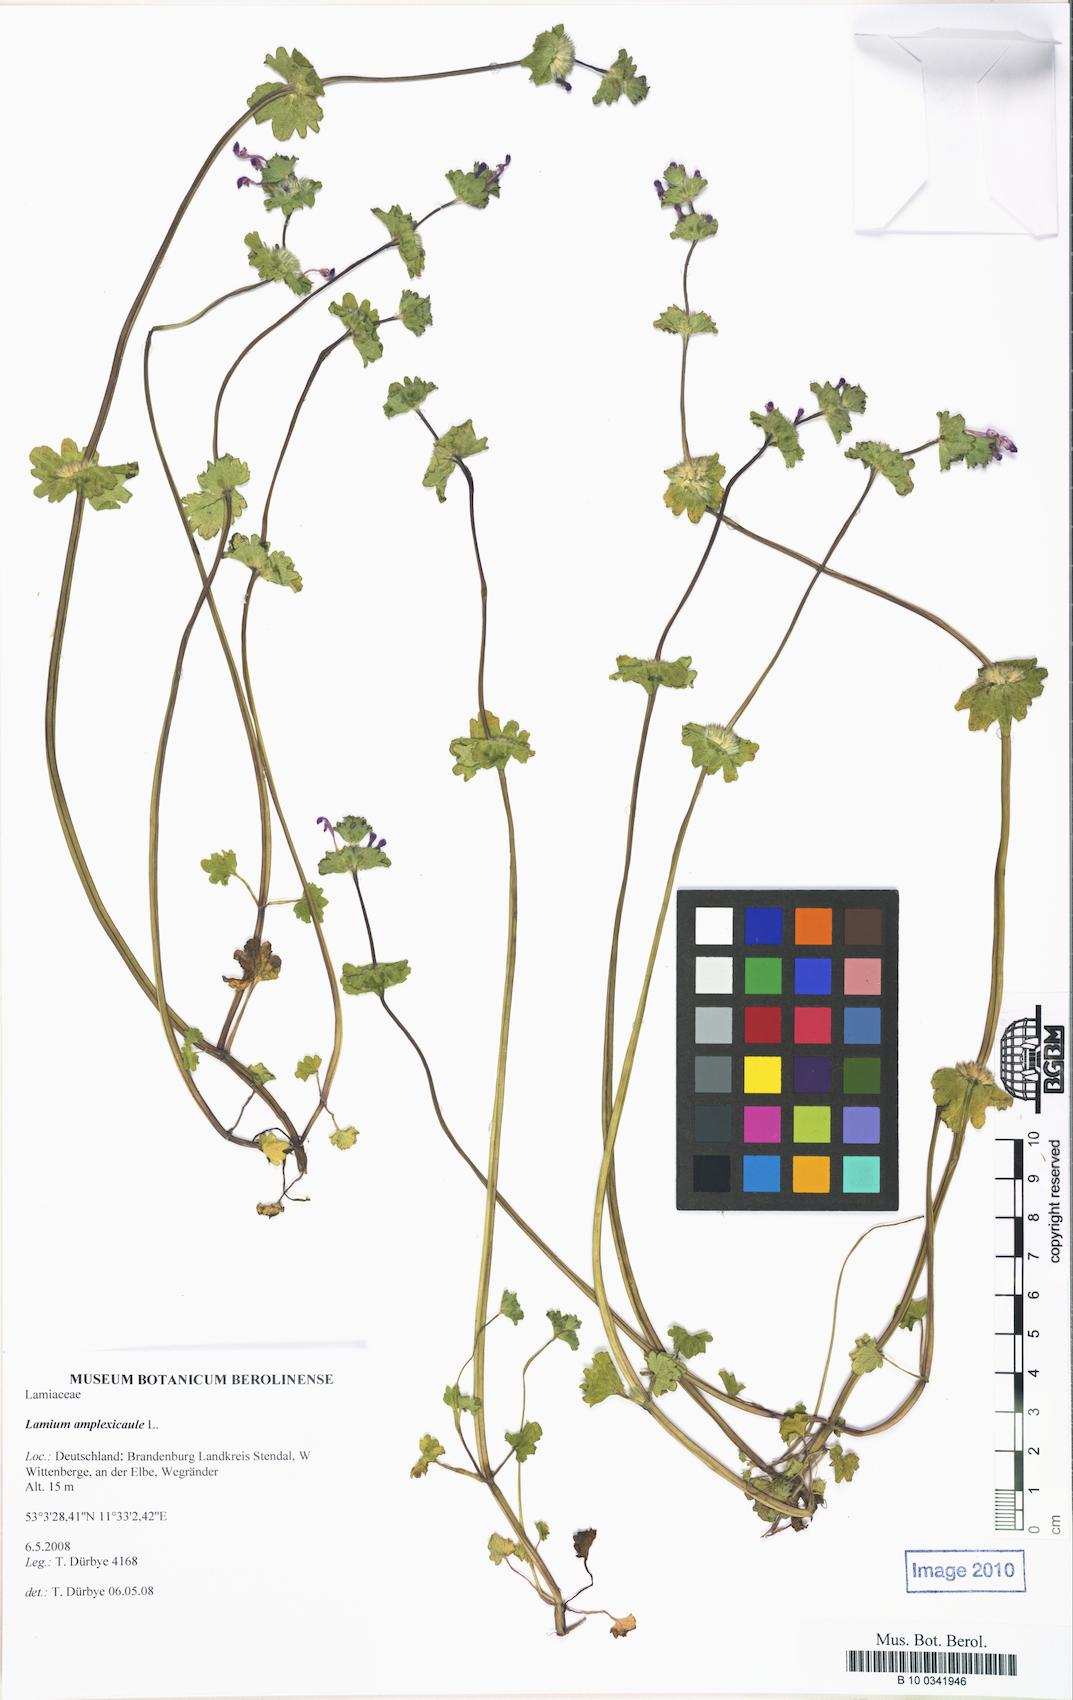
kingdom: Plantae
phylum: Tracheophyta
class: Magnoliopsida
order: Lamiales
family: Lamiaceae
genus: Lamium
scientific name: Lamium amplexicaule
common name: Henbit dead-nettle
